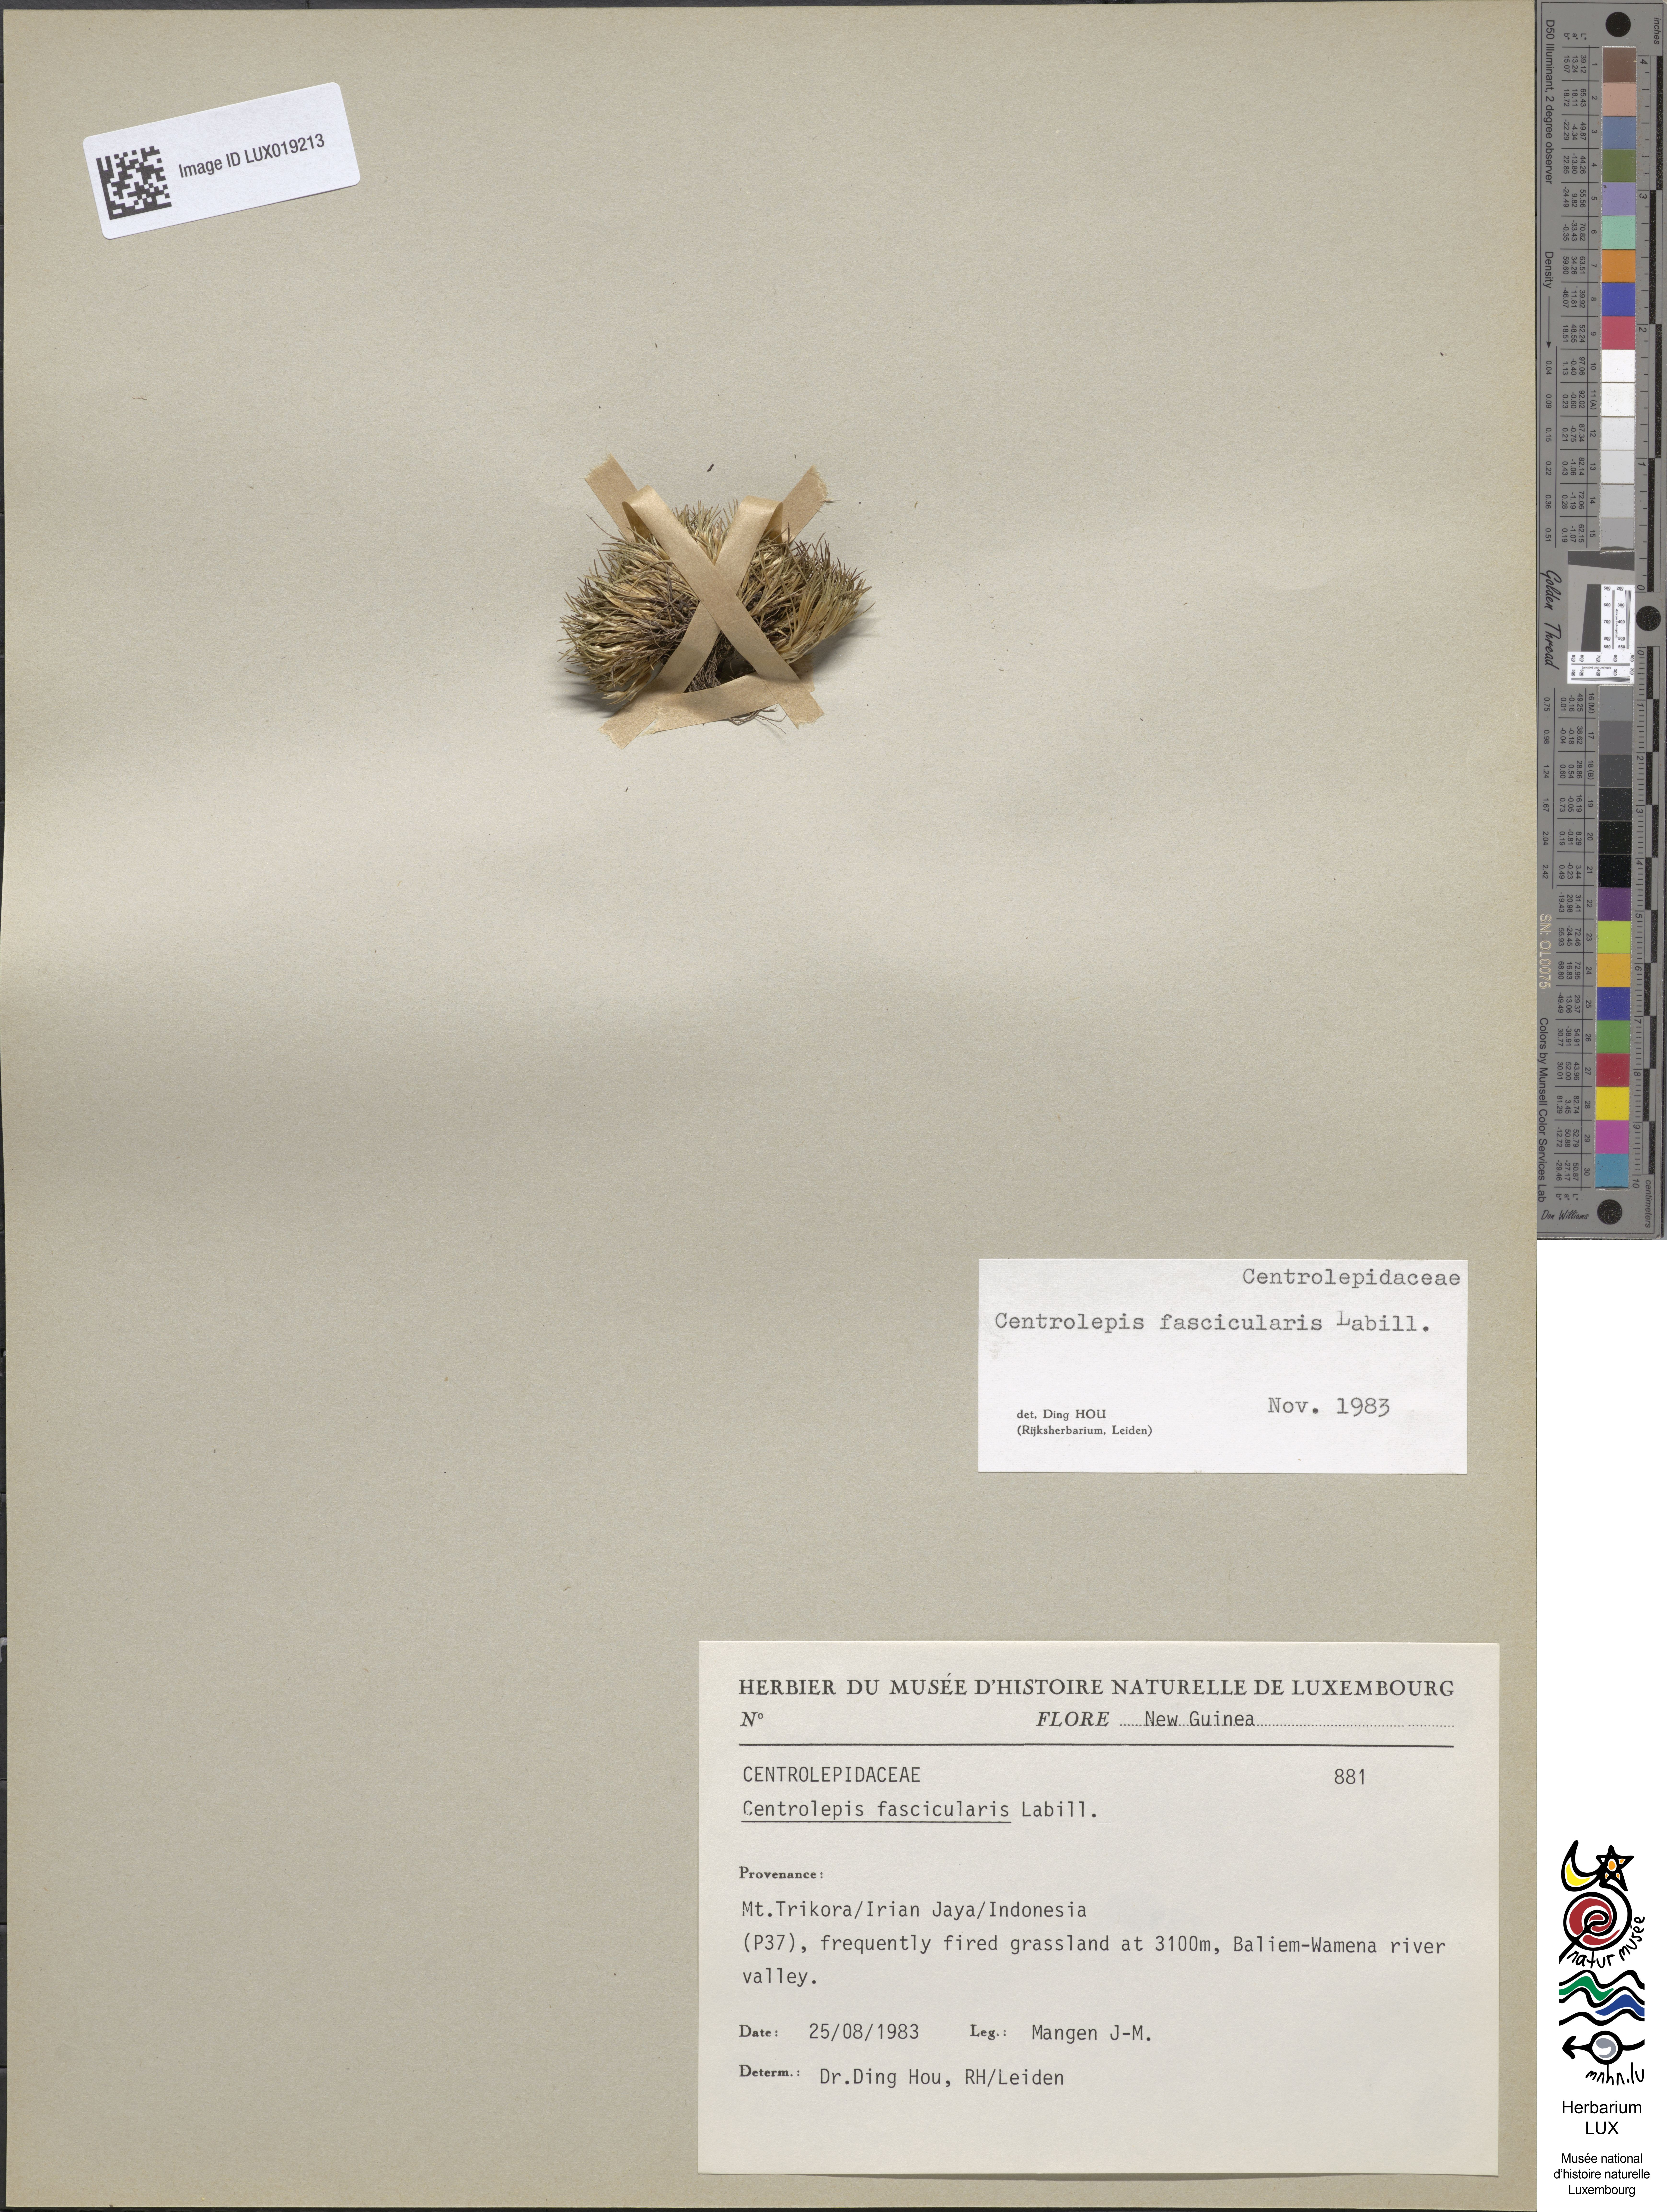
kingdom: Plantae
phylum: Tracheophyta
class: Liliopsida
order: Poales
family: Restionaceae
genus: Centrolepis
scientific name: Centrolepis fascicularis
